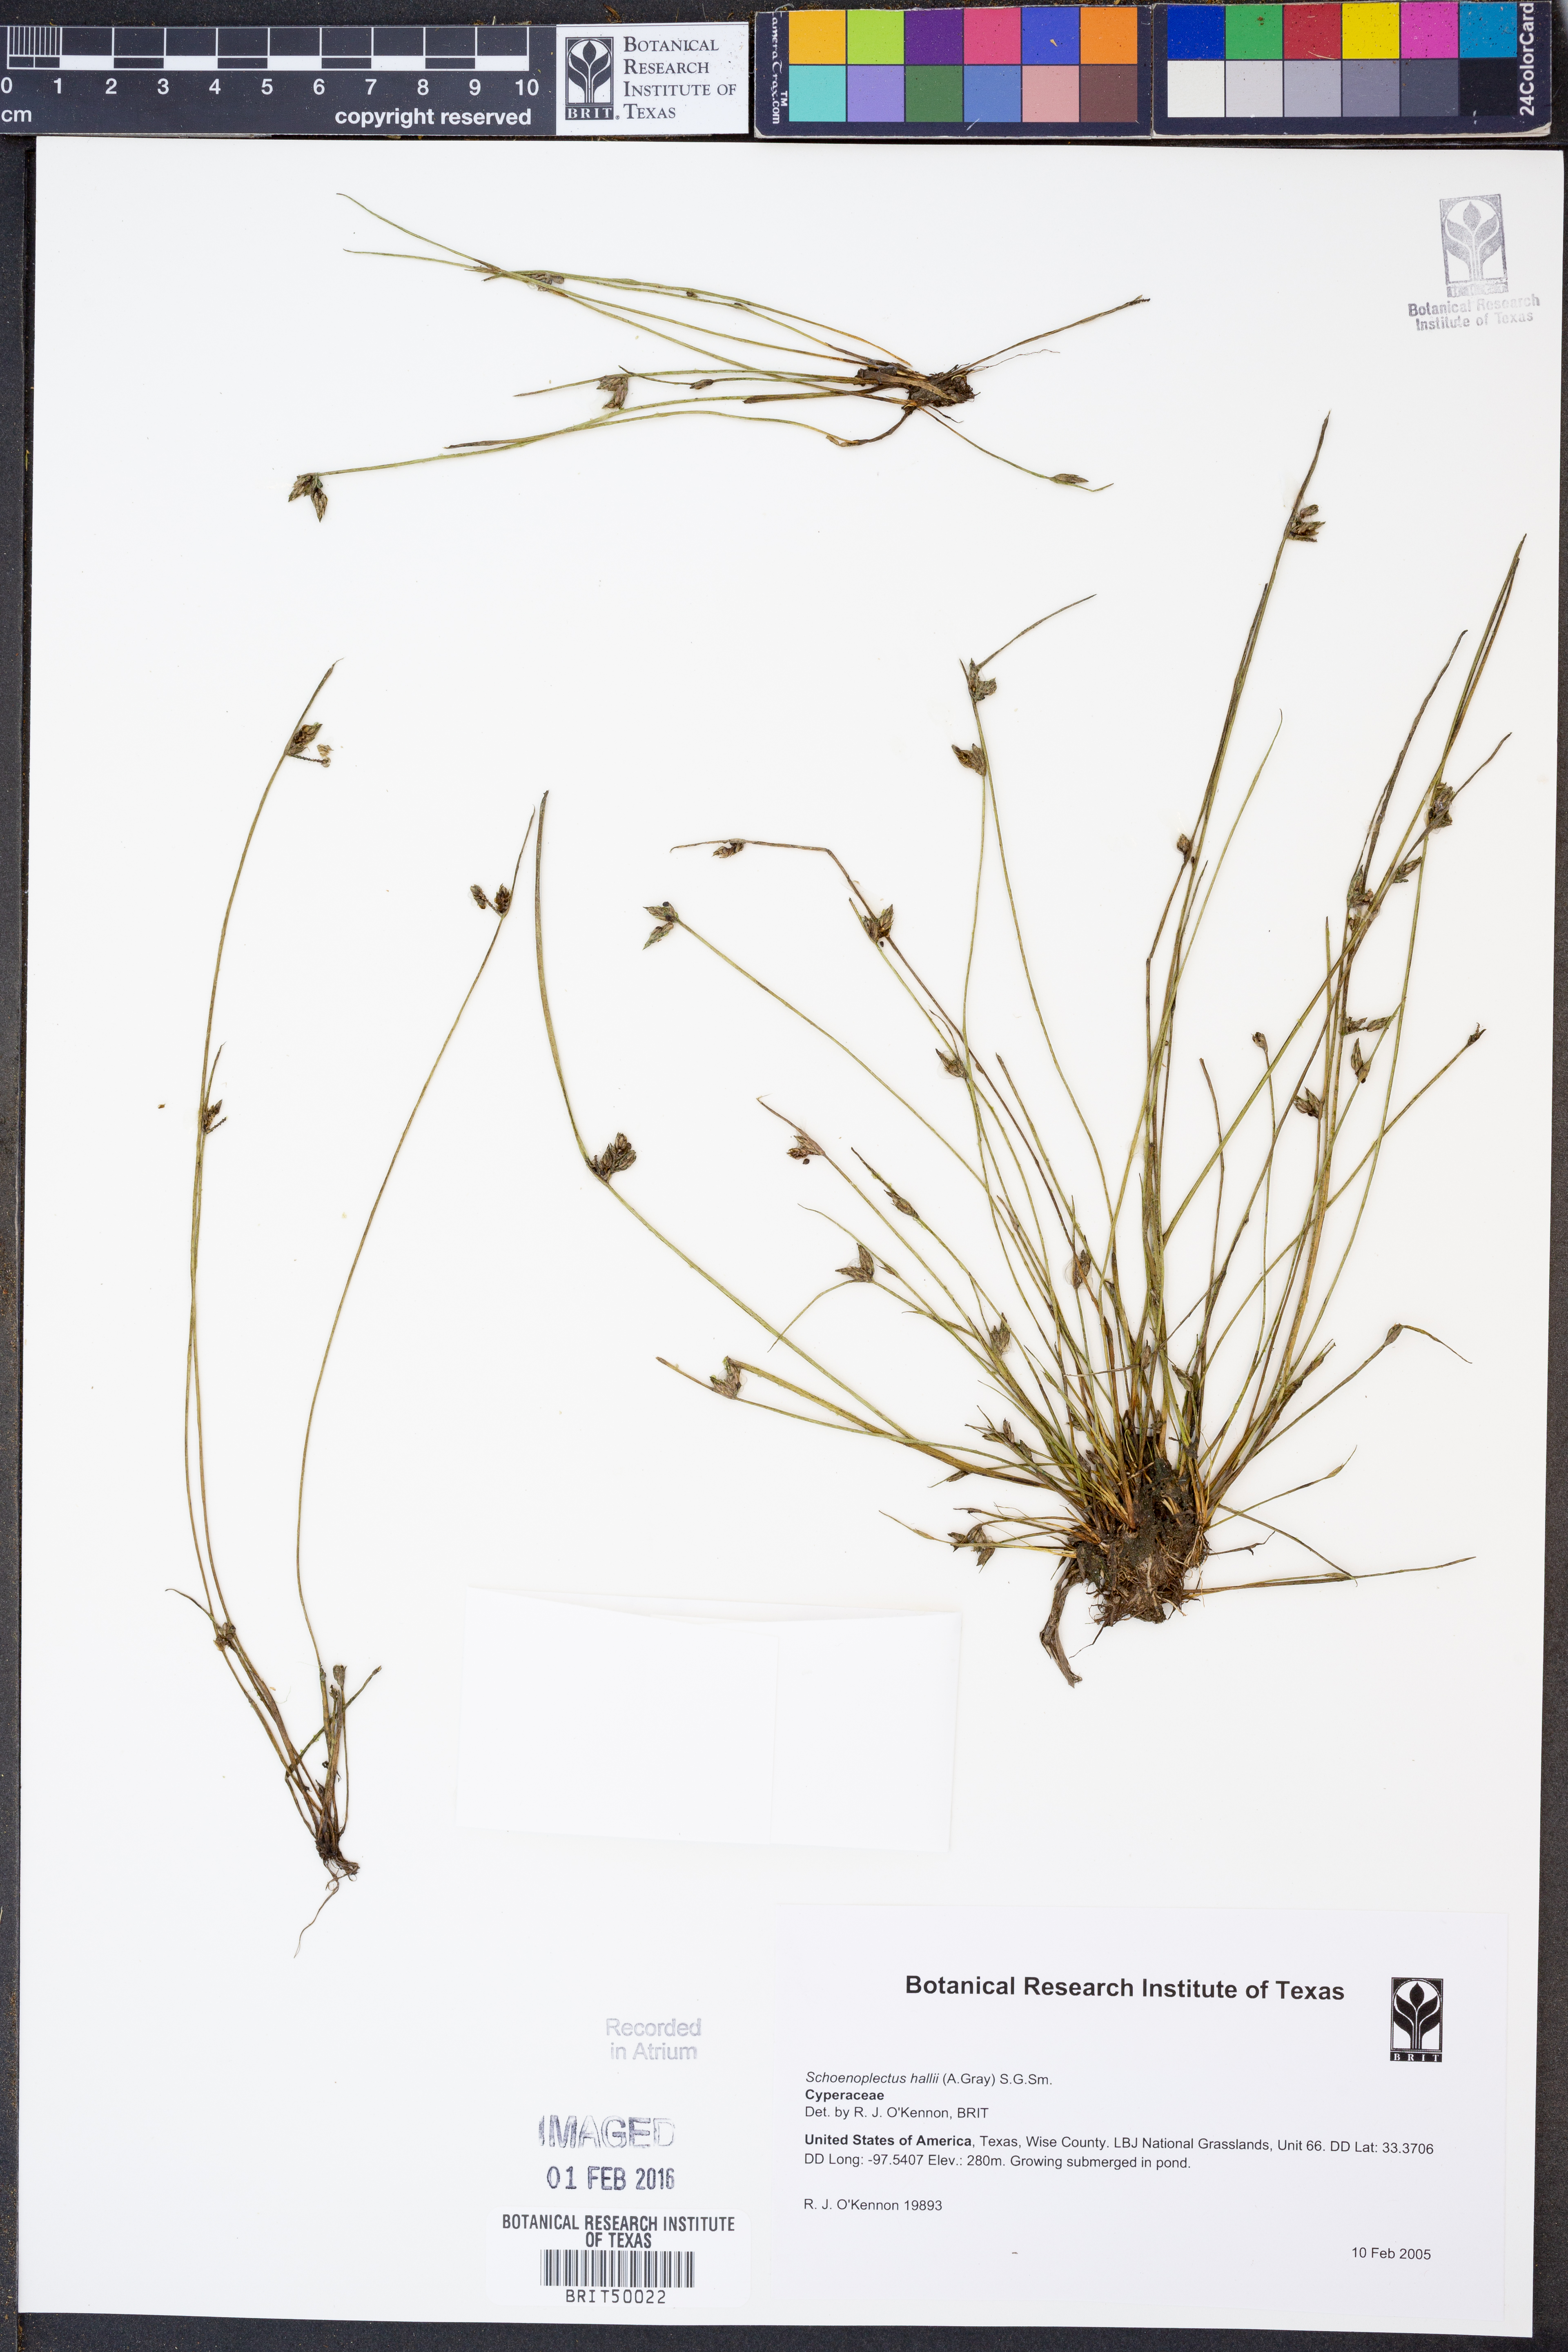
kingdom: Plantae
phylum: Tracheophyta
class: Liliopsida
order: Poales
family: Cyperaceae
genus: Schoenoplectiella
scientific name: Schoenoplectiella hallii
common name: Hall's bullrush
